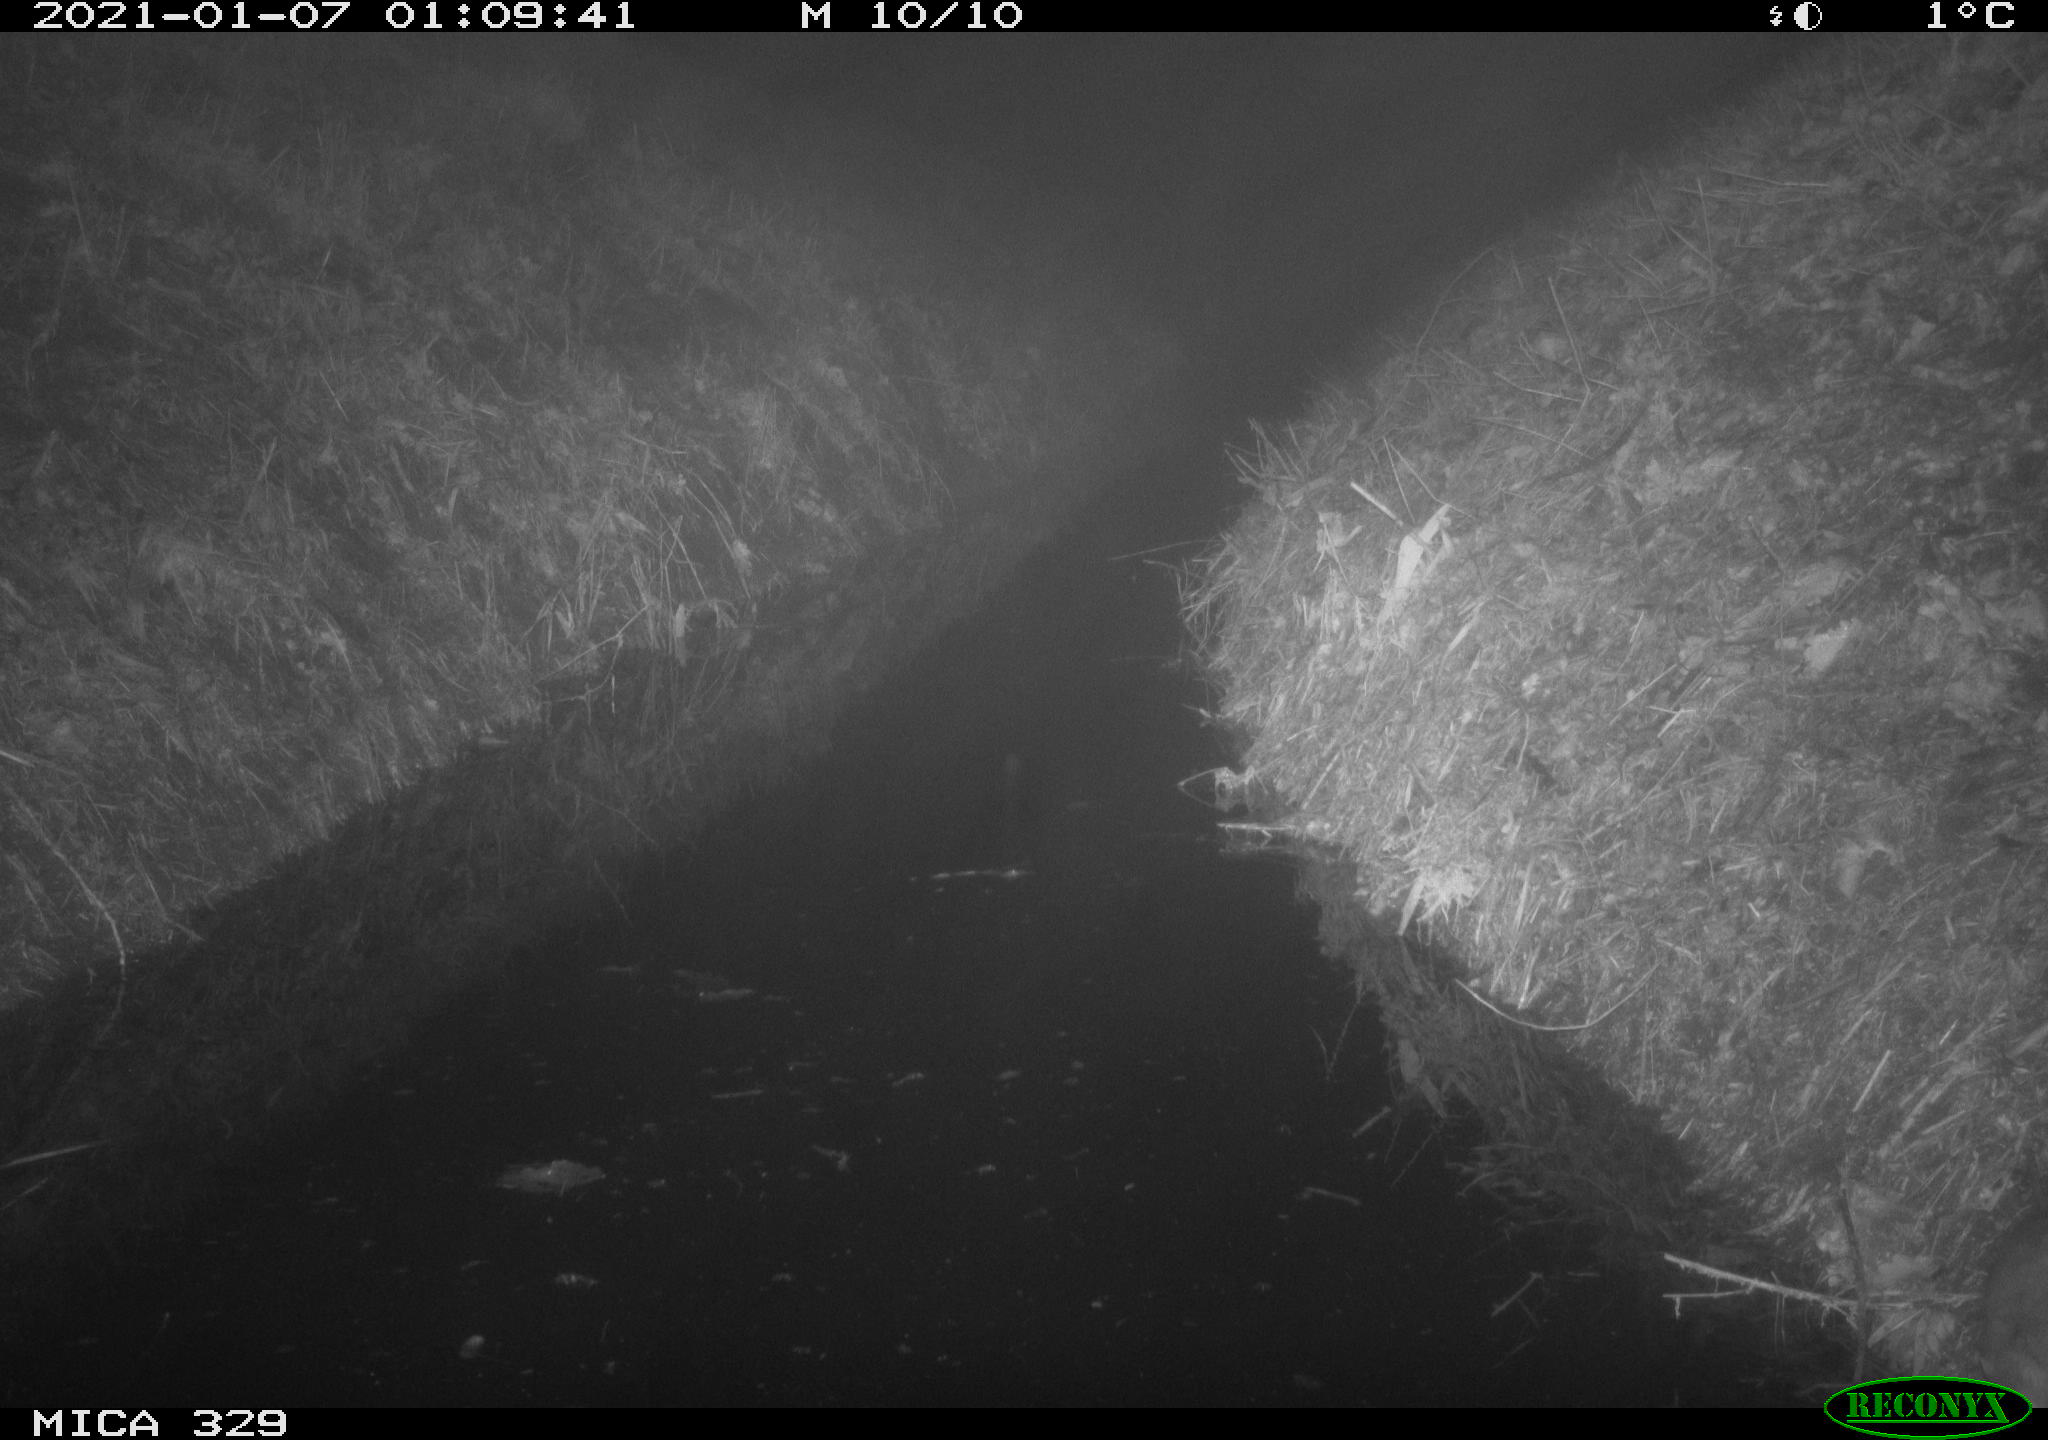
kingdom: Animalia
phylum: Chordata
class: Mammalia
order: Rodentia
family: Muridae
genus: Rattus
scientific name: Rattus norvegicus
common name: Brown rat
